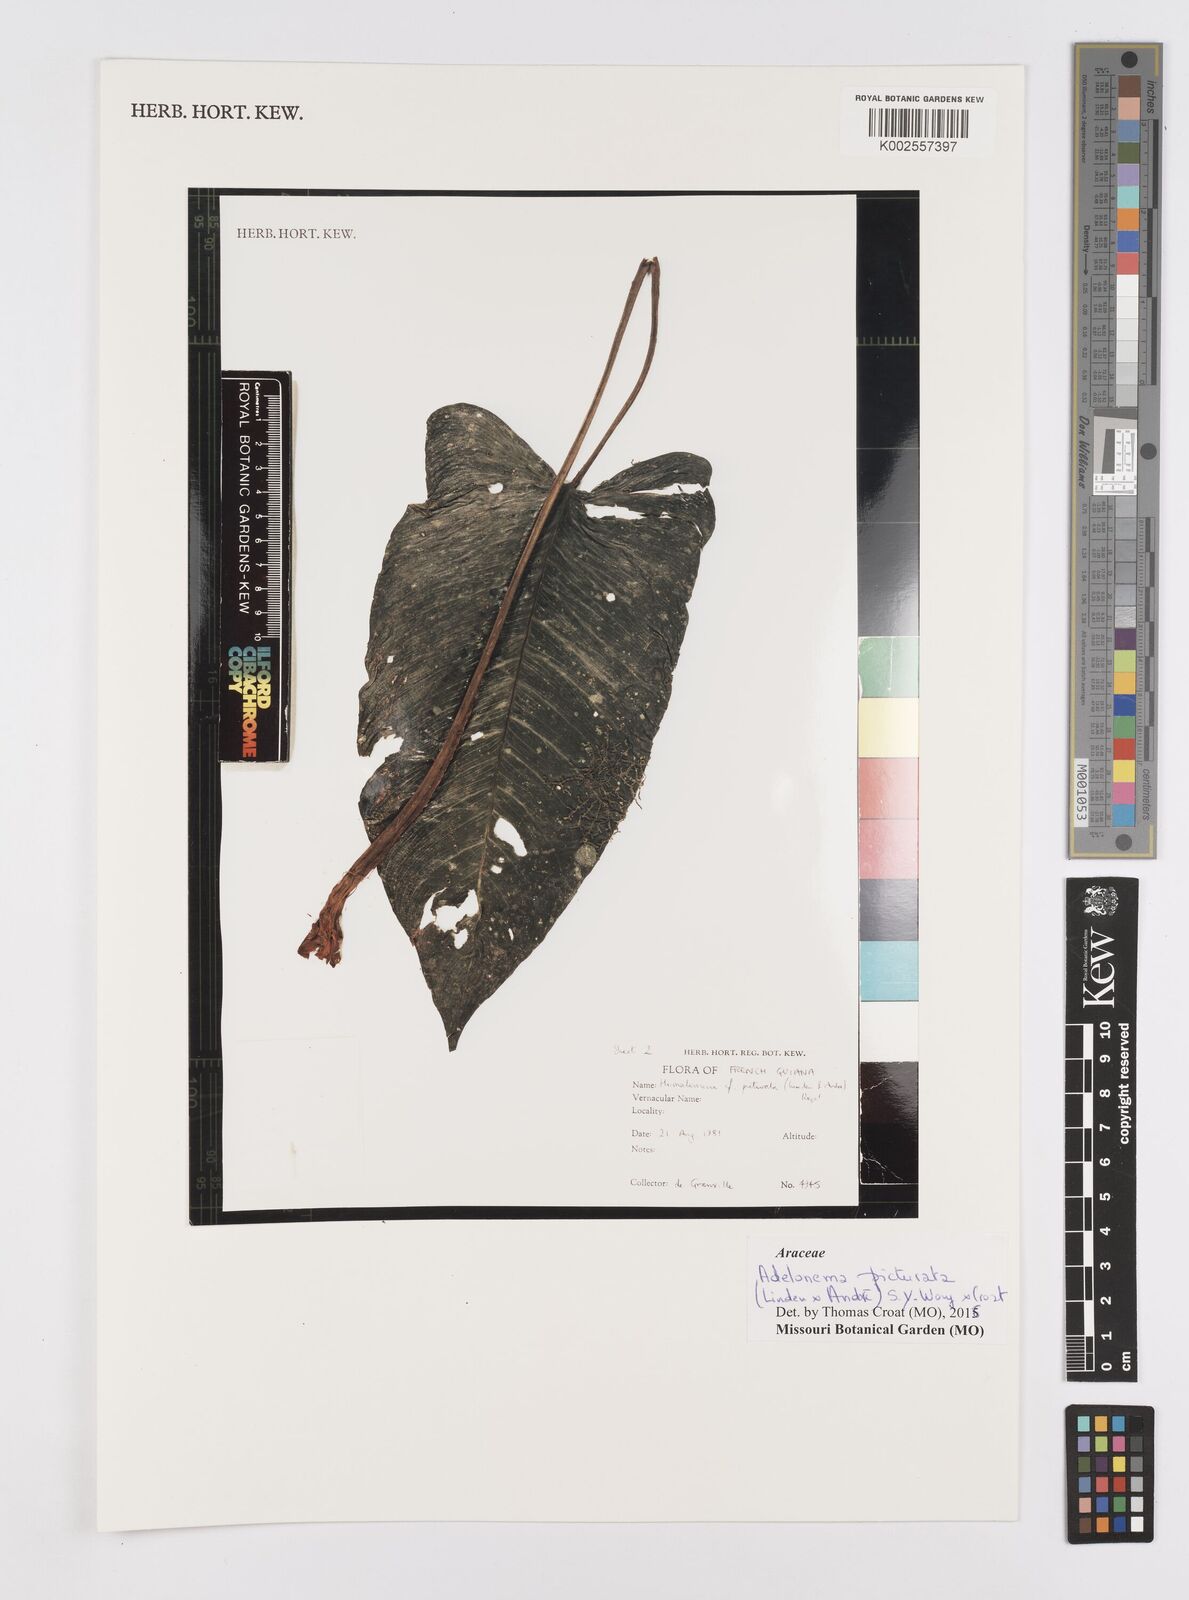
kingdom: Plantae
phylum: Tracheophyta
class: Liliopsida
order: Alismatales
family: Araceae
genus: Adelonema
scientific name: Adelonema picturatum
